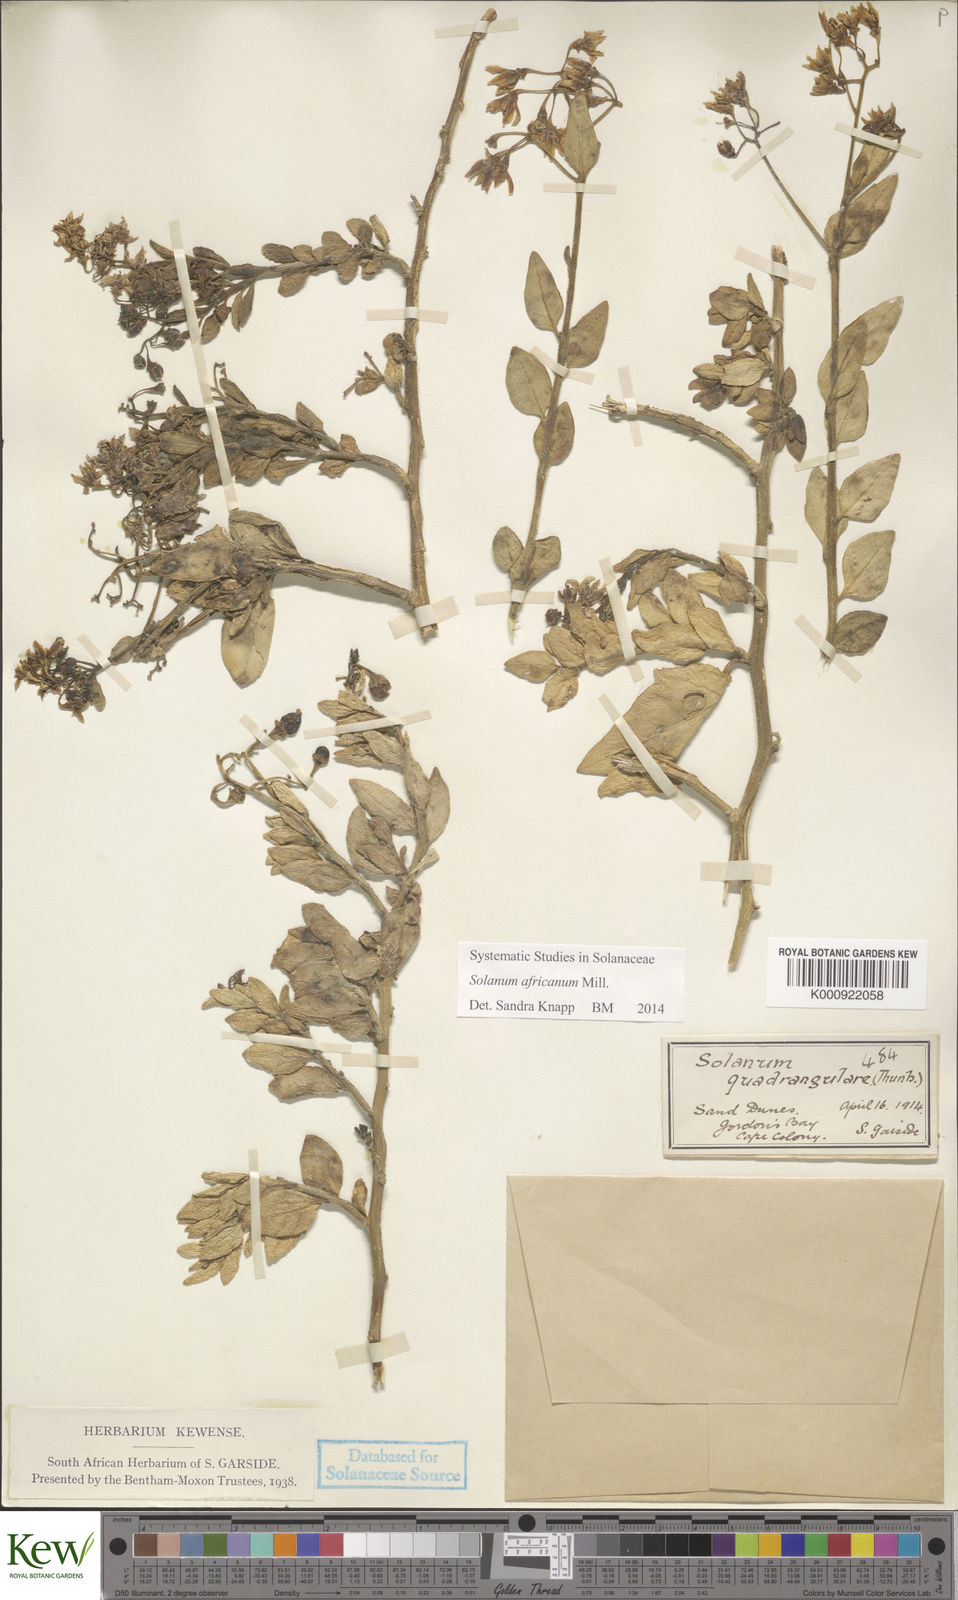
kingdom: Plantae
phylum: Tracheophyta
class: Magnoliopsida
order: Solanales
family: Solanaceae
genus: Solanum
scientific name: Solanum africanum
